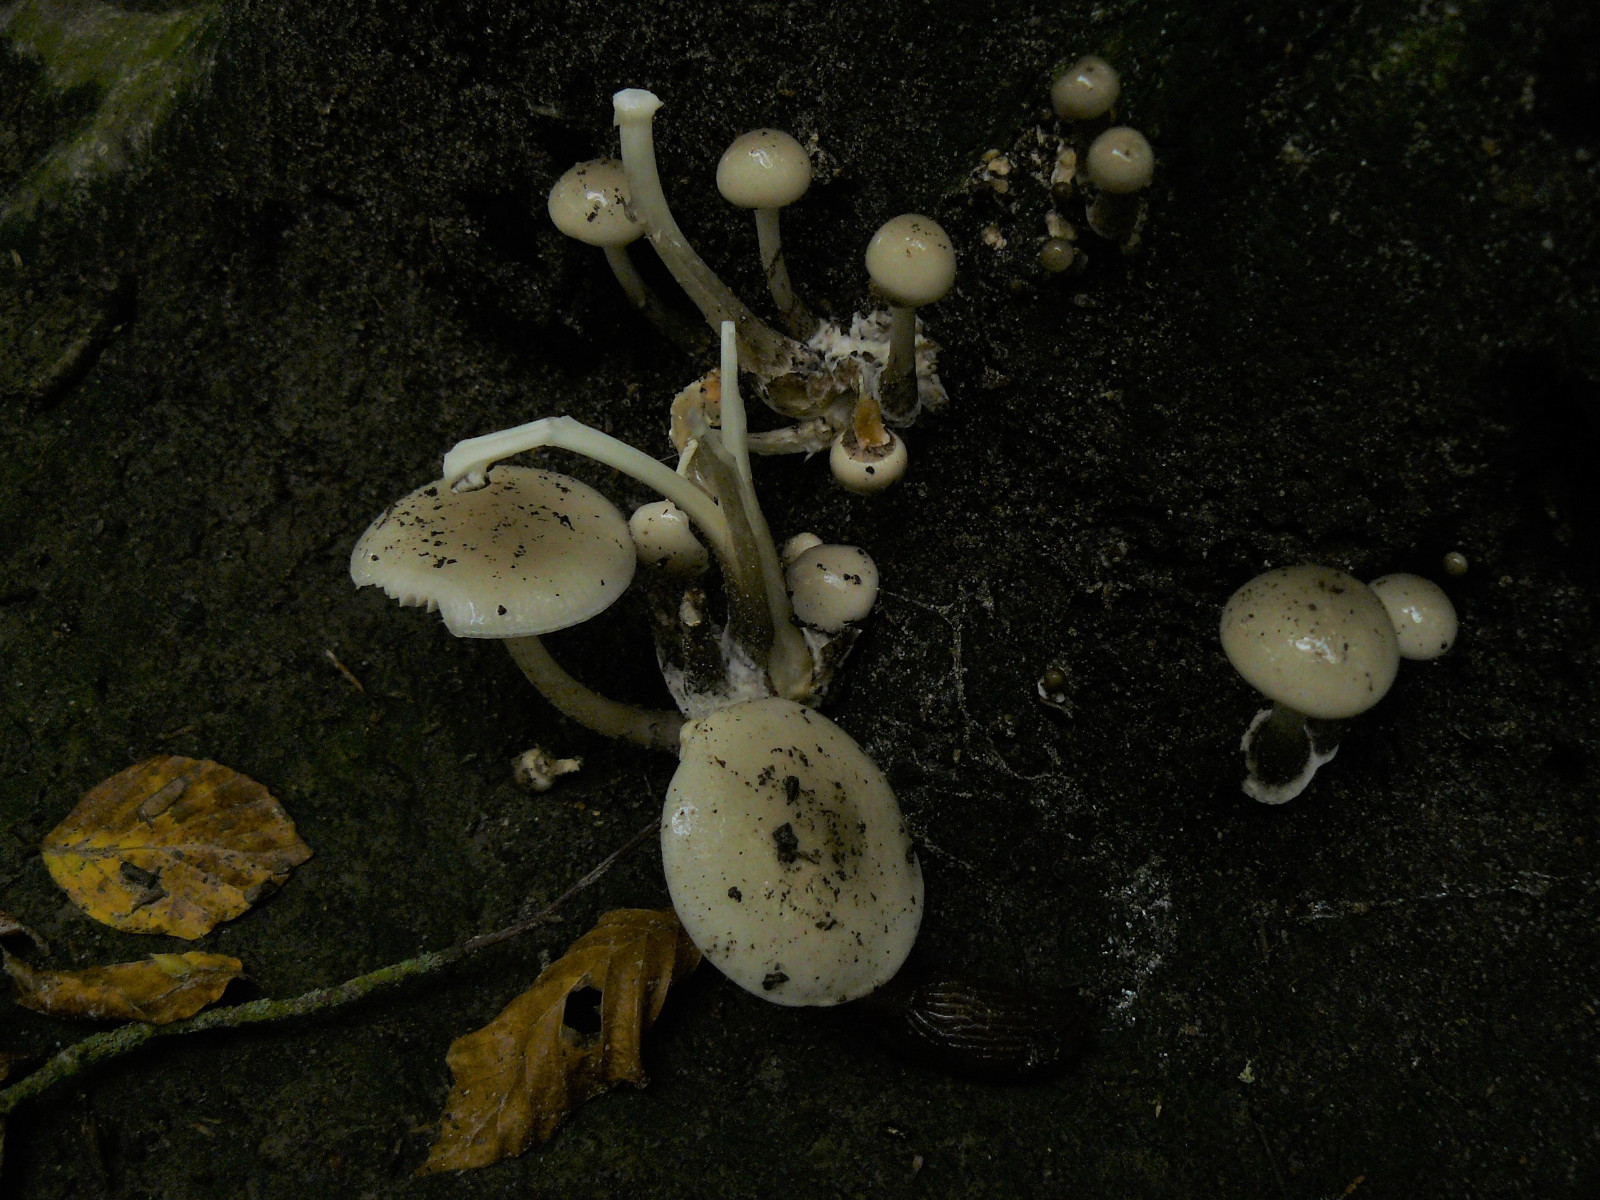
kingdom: Fungi
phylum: Basidiomycota
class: Agaricomycetes
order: Agaricales
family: Physalacriaceae
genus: Mucidula
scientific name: Mucidula mucida
